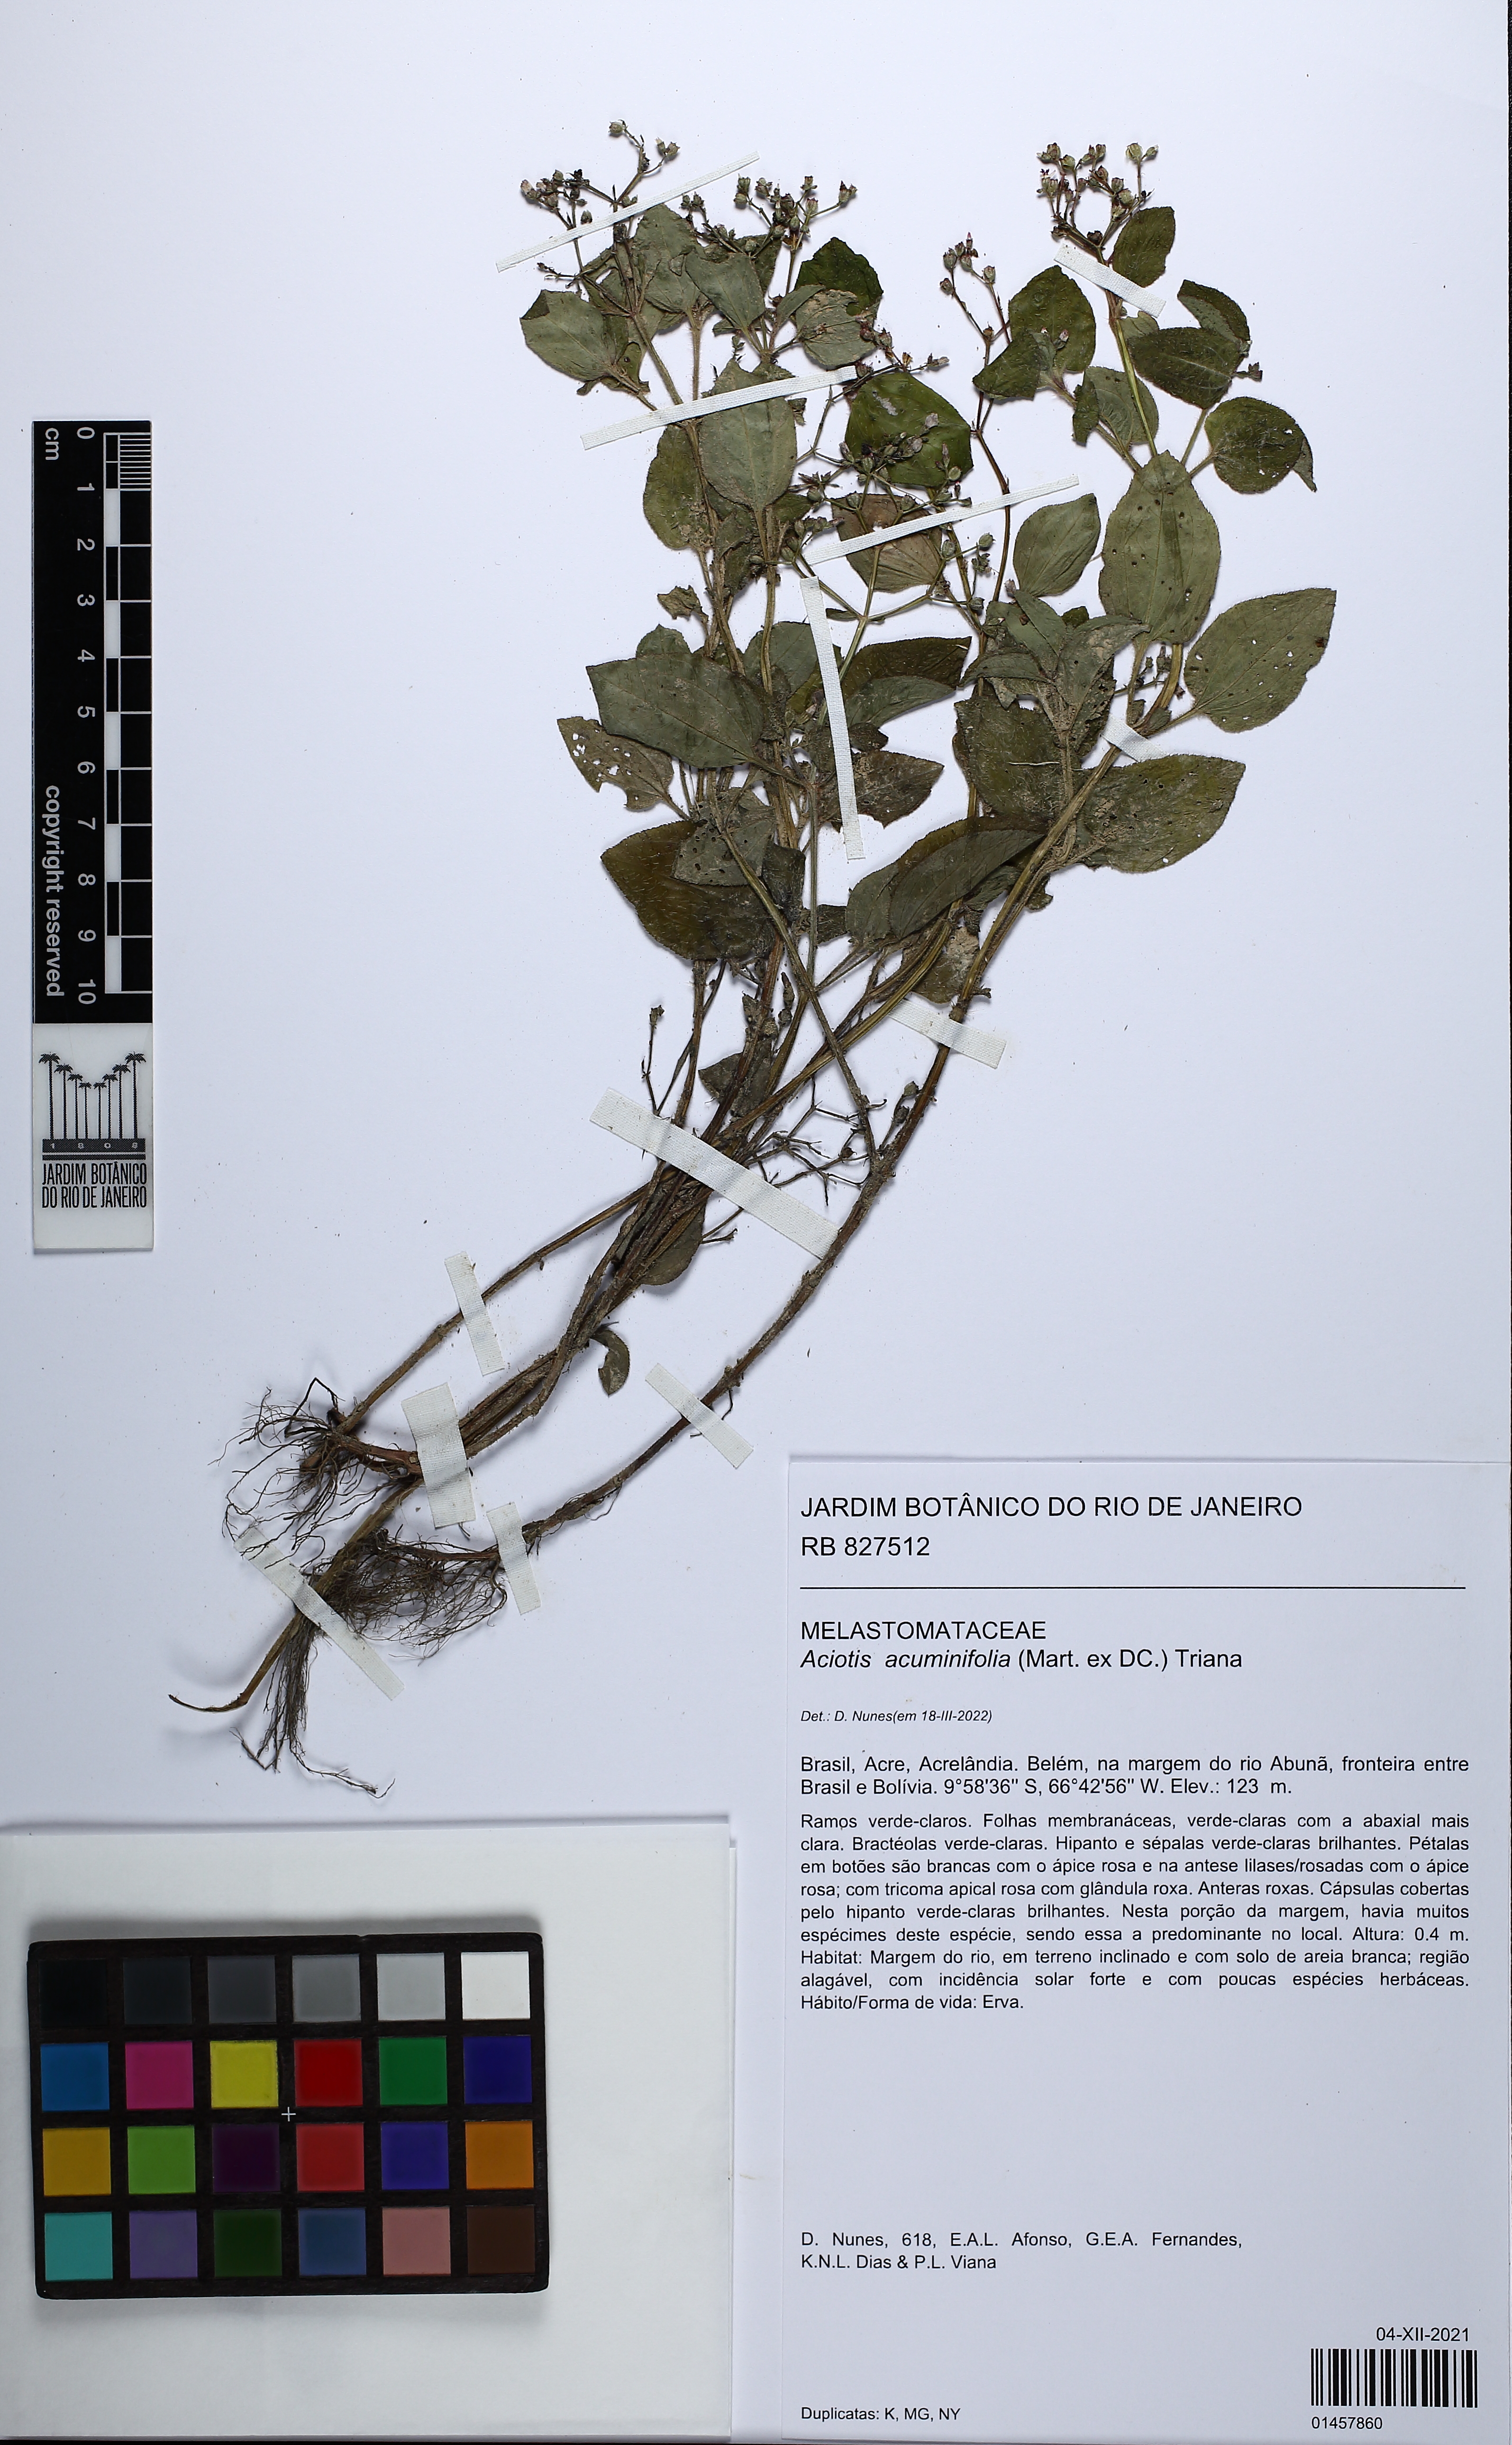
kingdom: Plantae
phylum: Tracheophyta
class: Magnoliopsida
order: Myrtales
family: Melastomataceae
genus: Aciotis
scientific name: Aciotis acuminifolia
